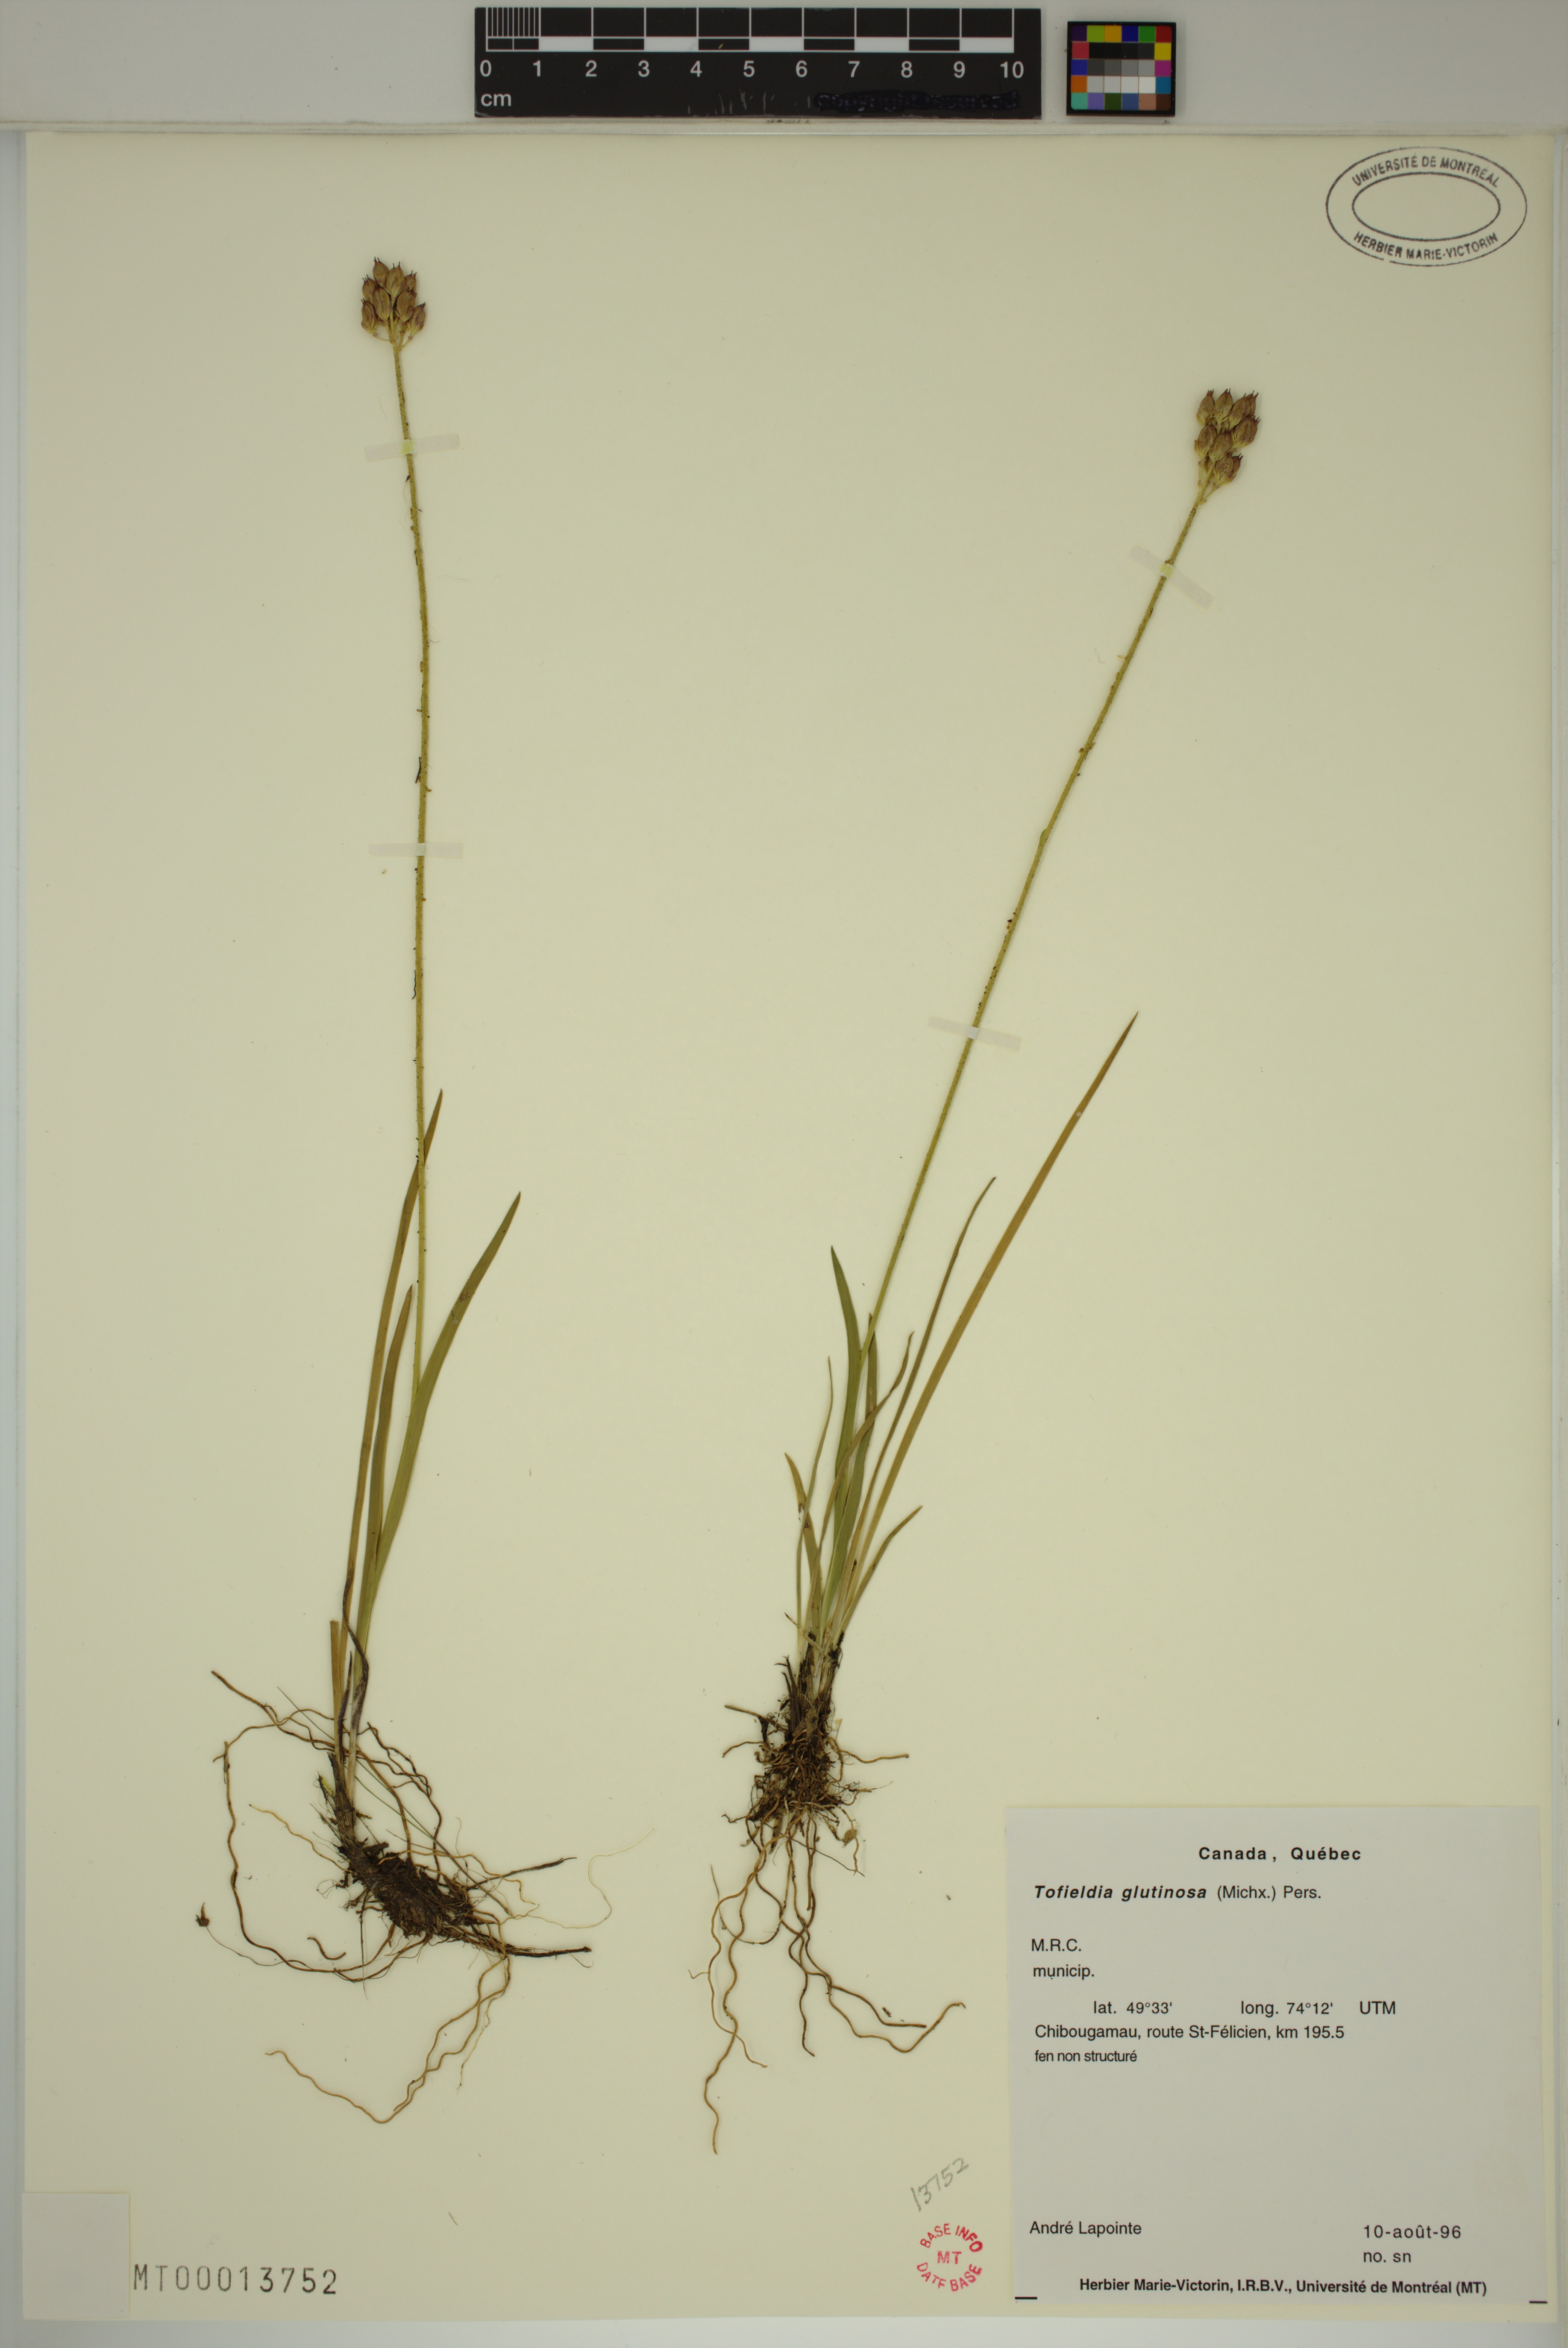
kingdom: Plantae
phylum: Tracheophyta
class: Liliopsida
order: Alismatales
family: Tofieldiaceae
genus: Triantha
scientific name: Triantha glutinosa
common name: Glutinous tofieldia
